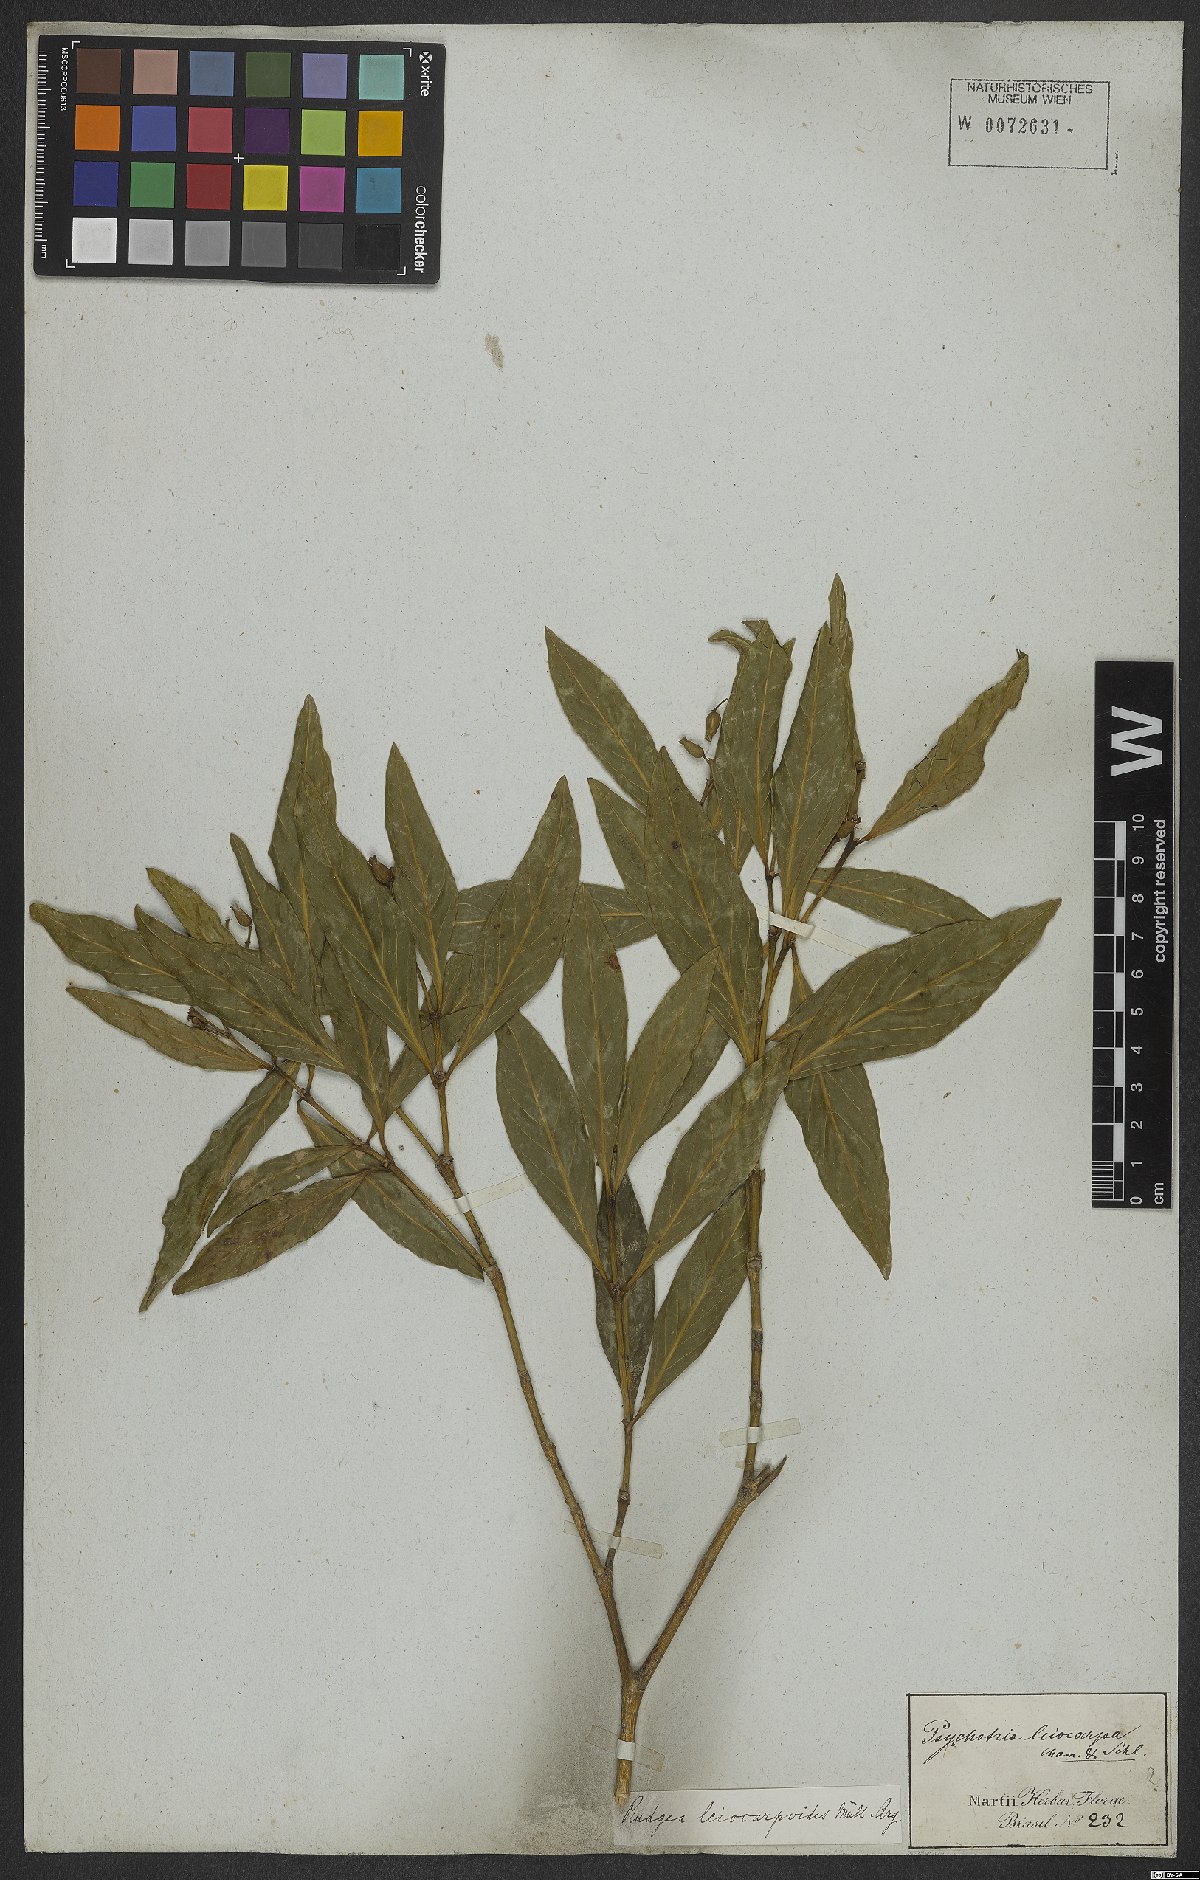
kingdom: Plantae
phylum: Tracheophyta
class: Magnoliopsida
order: Gentianales
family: Rubiaceae
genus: Rudgea
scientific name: Rudgea coronata
